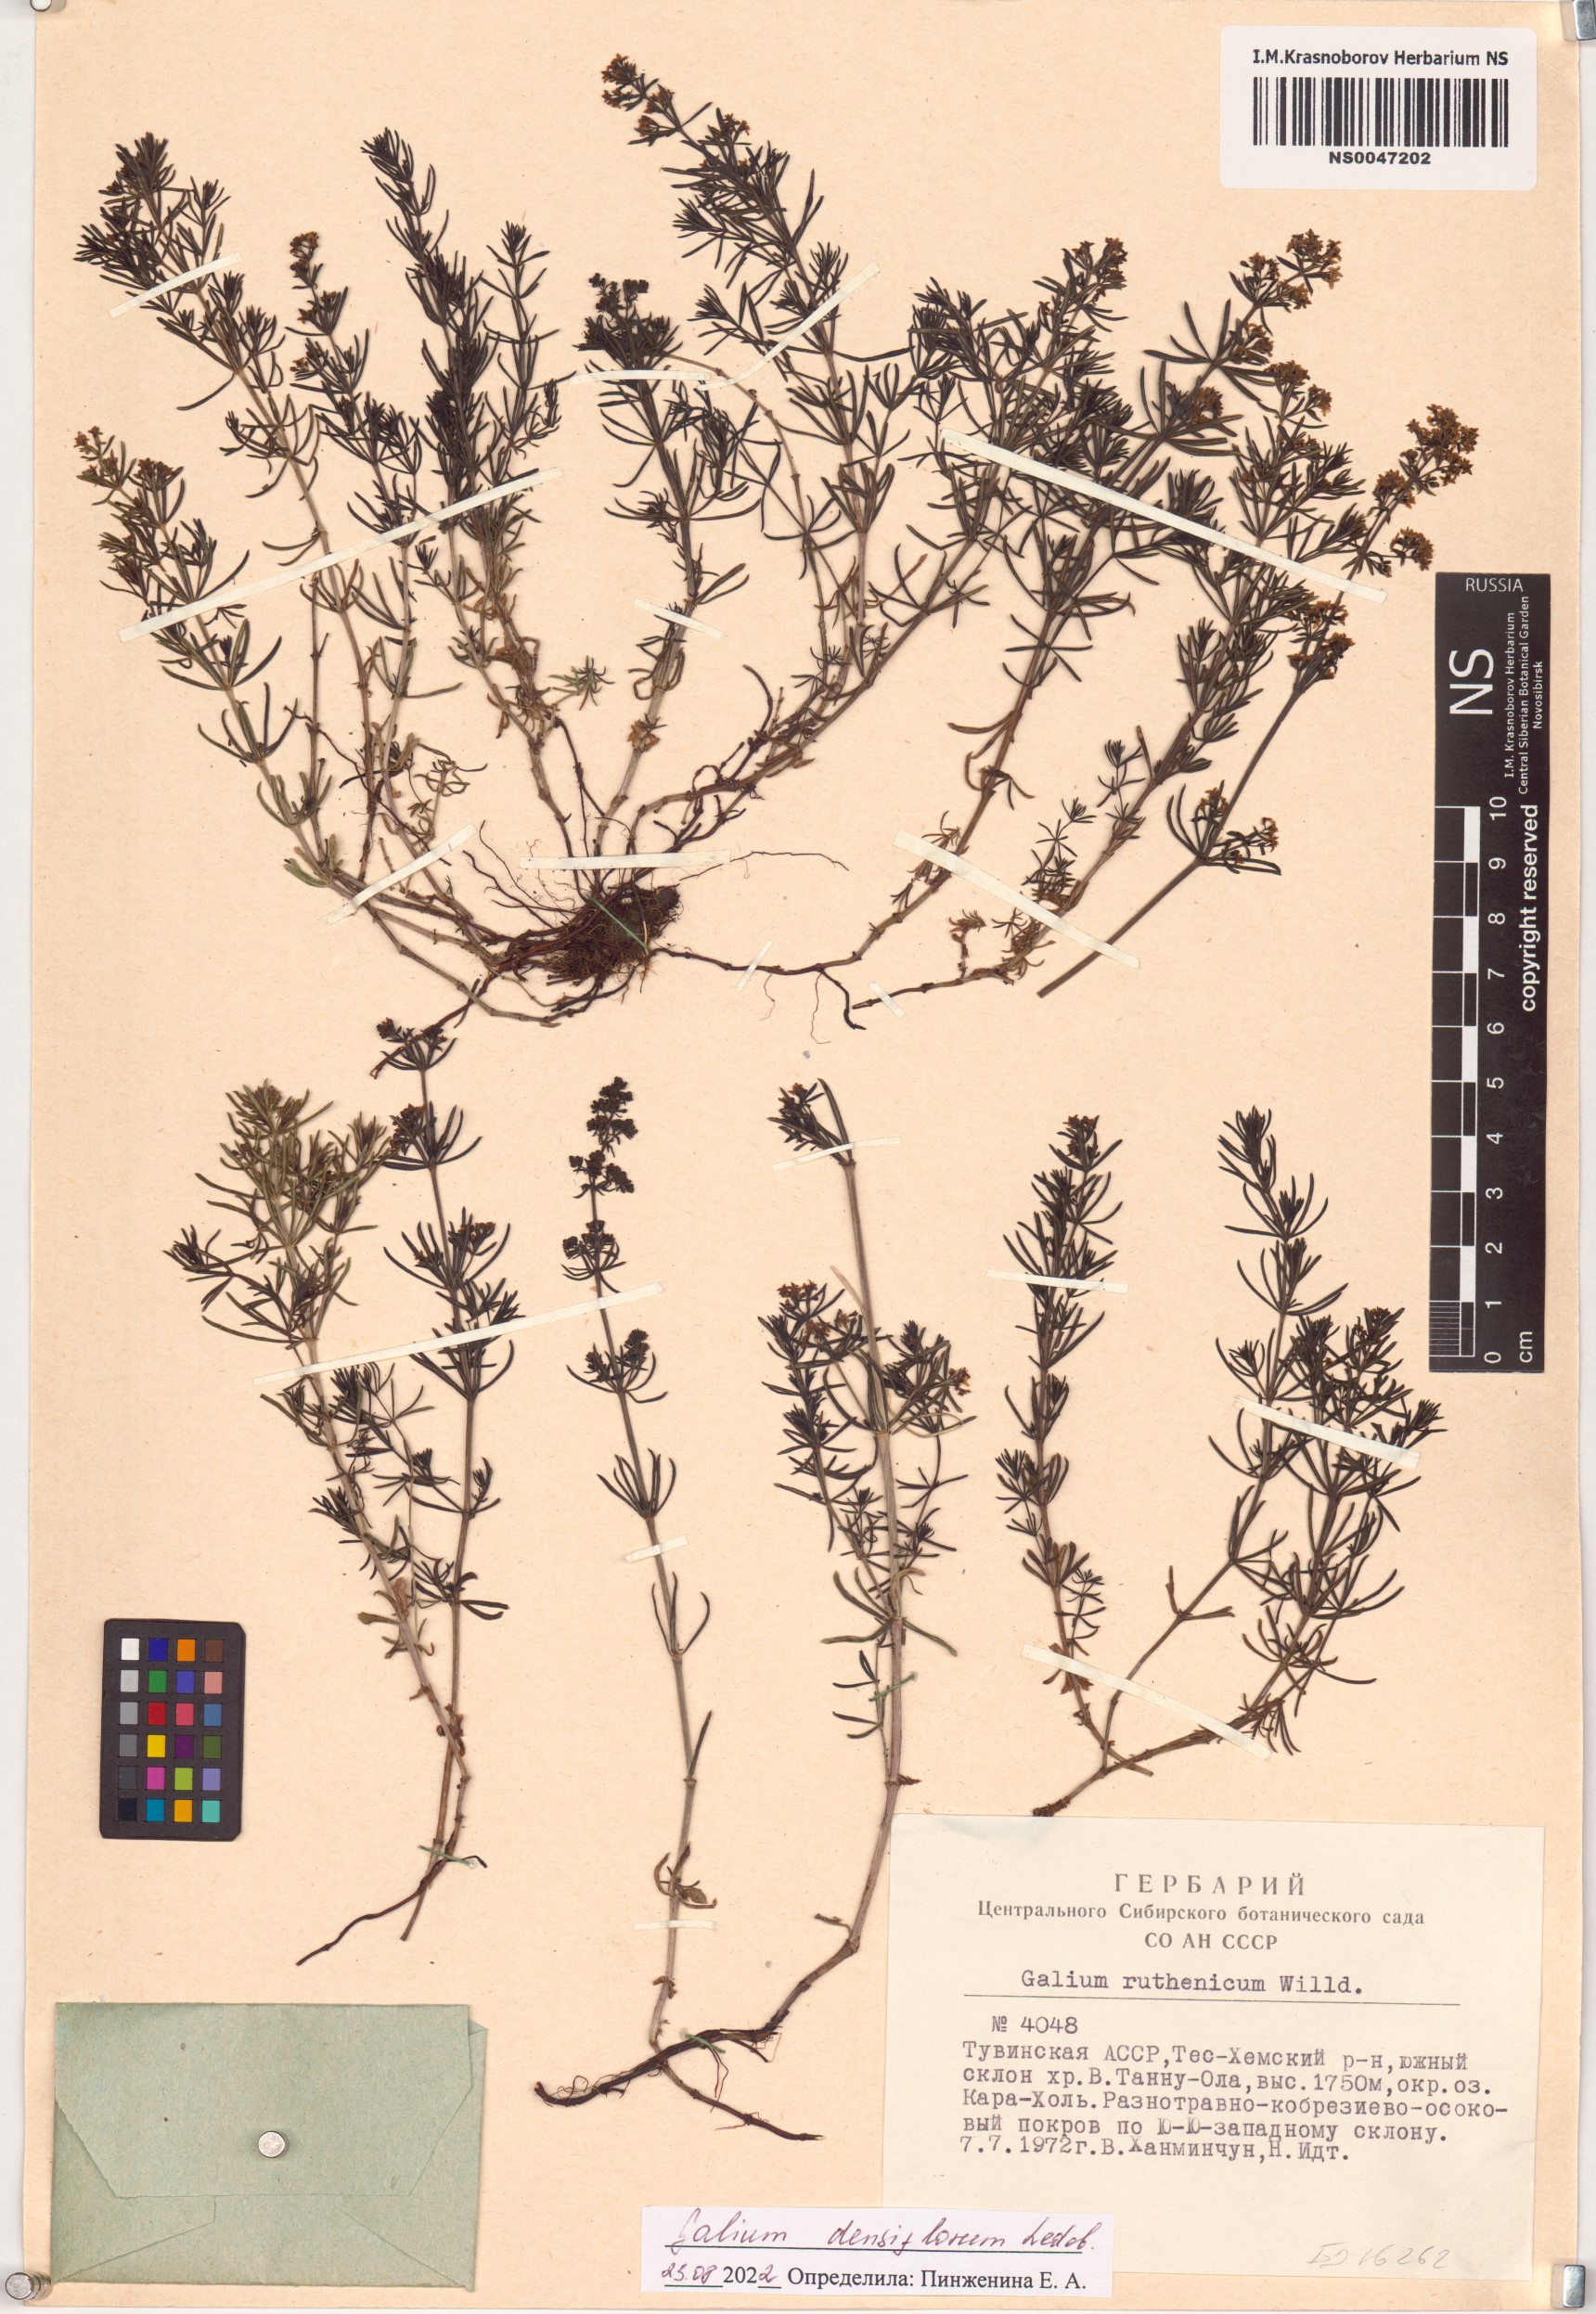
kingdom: Plantae
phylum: Tracheophyta
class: Magnoliopsida
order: Gentianales
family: Rubiaceae
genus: Galium
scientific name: Galium densiflorum
